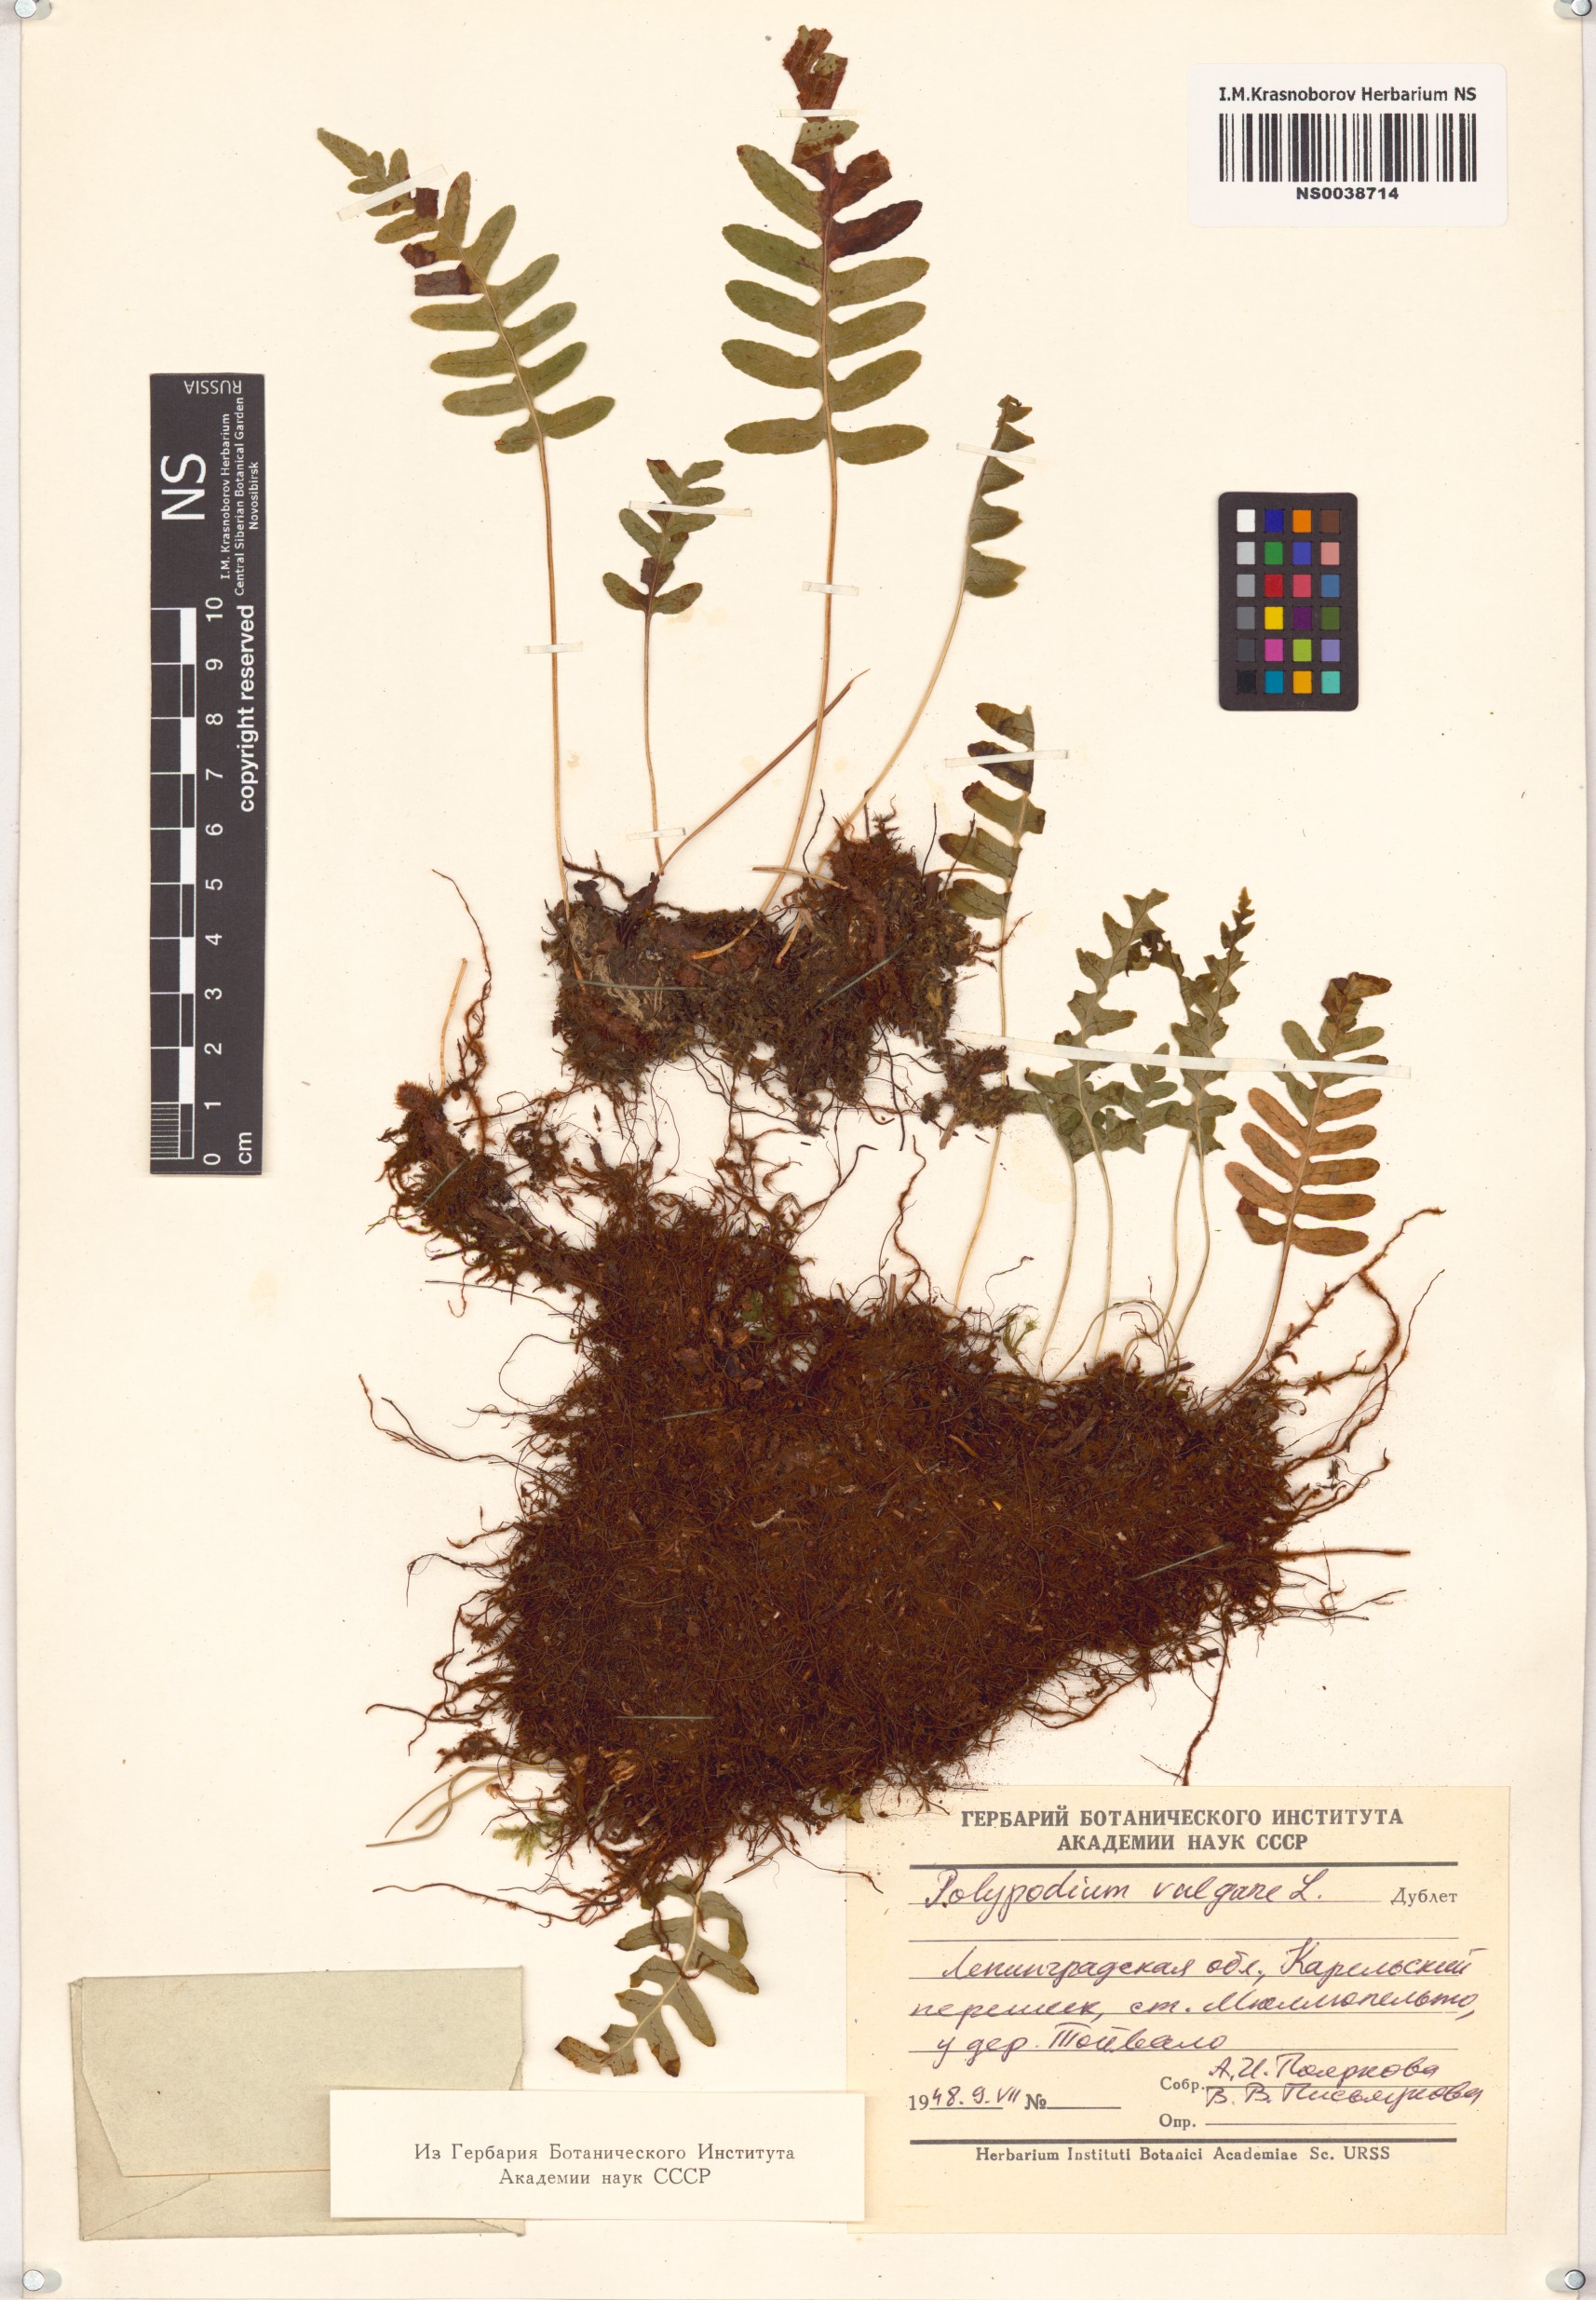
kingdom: Plantae
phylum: Tracheophyta
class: Polypodiopsida
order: Polypodiales
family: Polypodiaceae
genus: Polypodium
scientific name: Polypodium vulgare
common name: Common polypody
